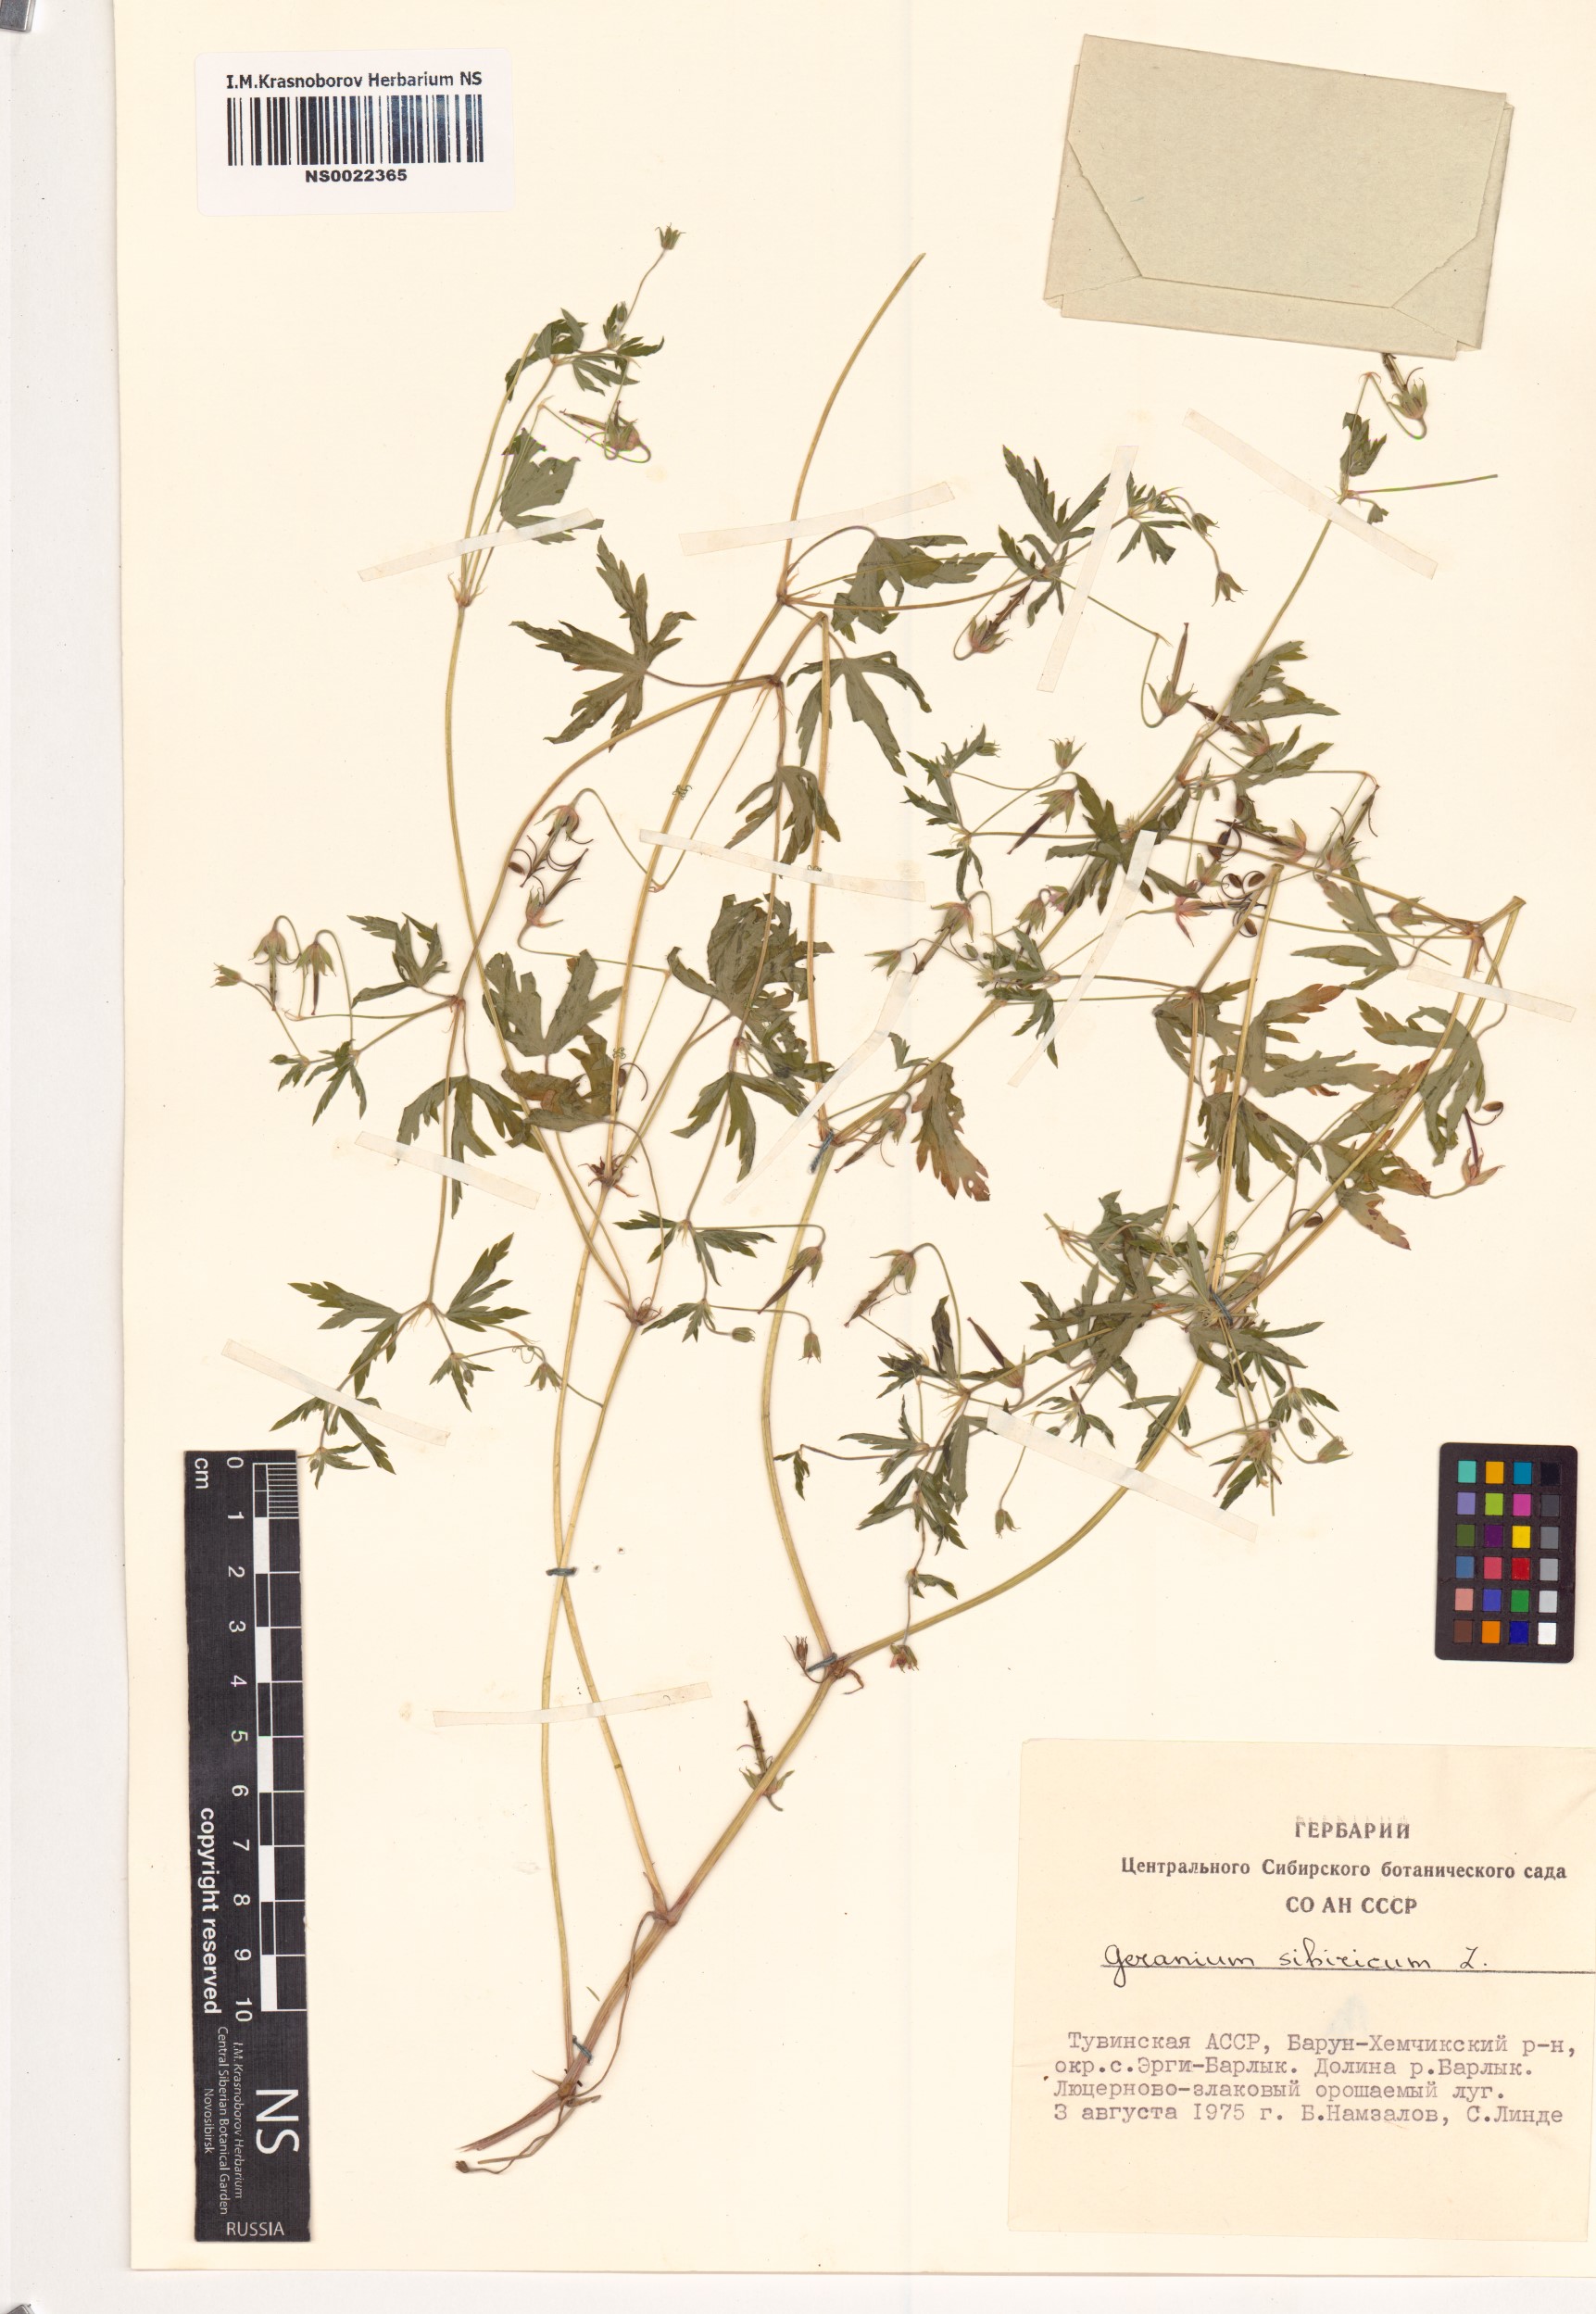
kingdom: Plantae
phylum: Tracheophyta
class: Magnoliopsida
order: Geraniales
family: Geraniaceae
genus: Geranium
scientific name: Geranium sibiricum
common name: Siberian crane's-bill
